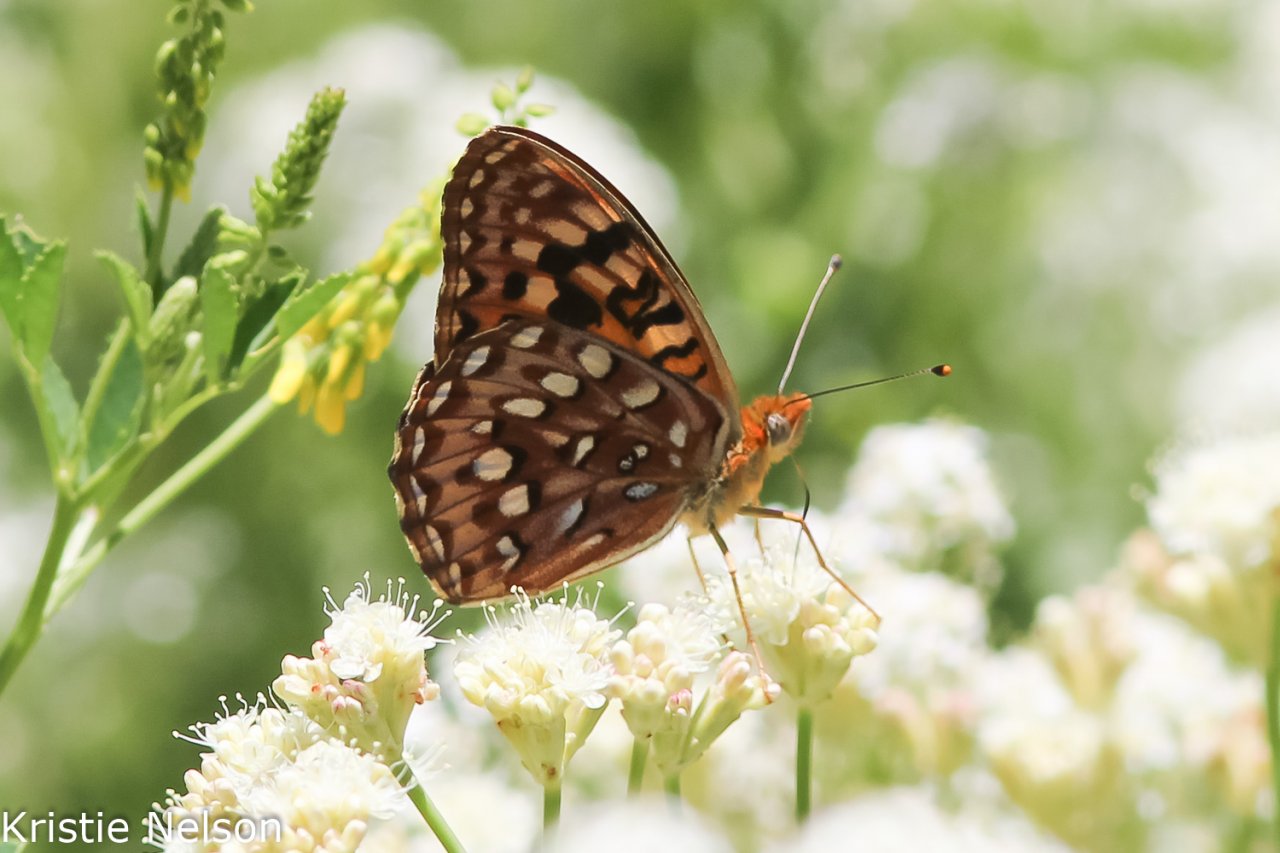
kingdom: Animalia
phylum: Arthropoda
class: Insecta
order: Lepidoptera
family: Nymphalidae
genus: Speyeria
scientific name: Speyeria
